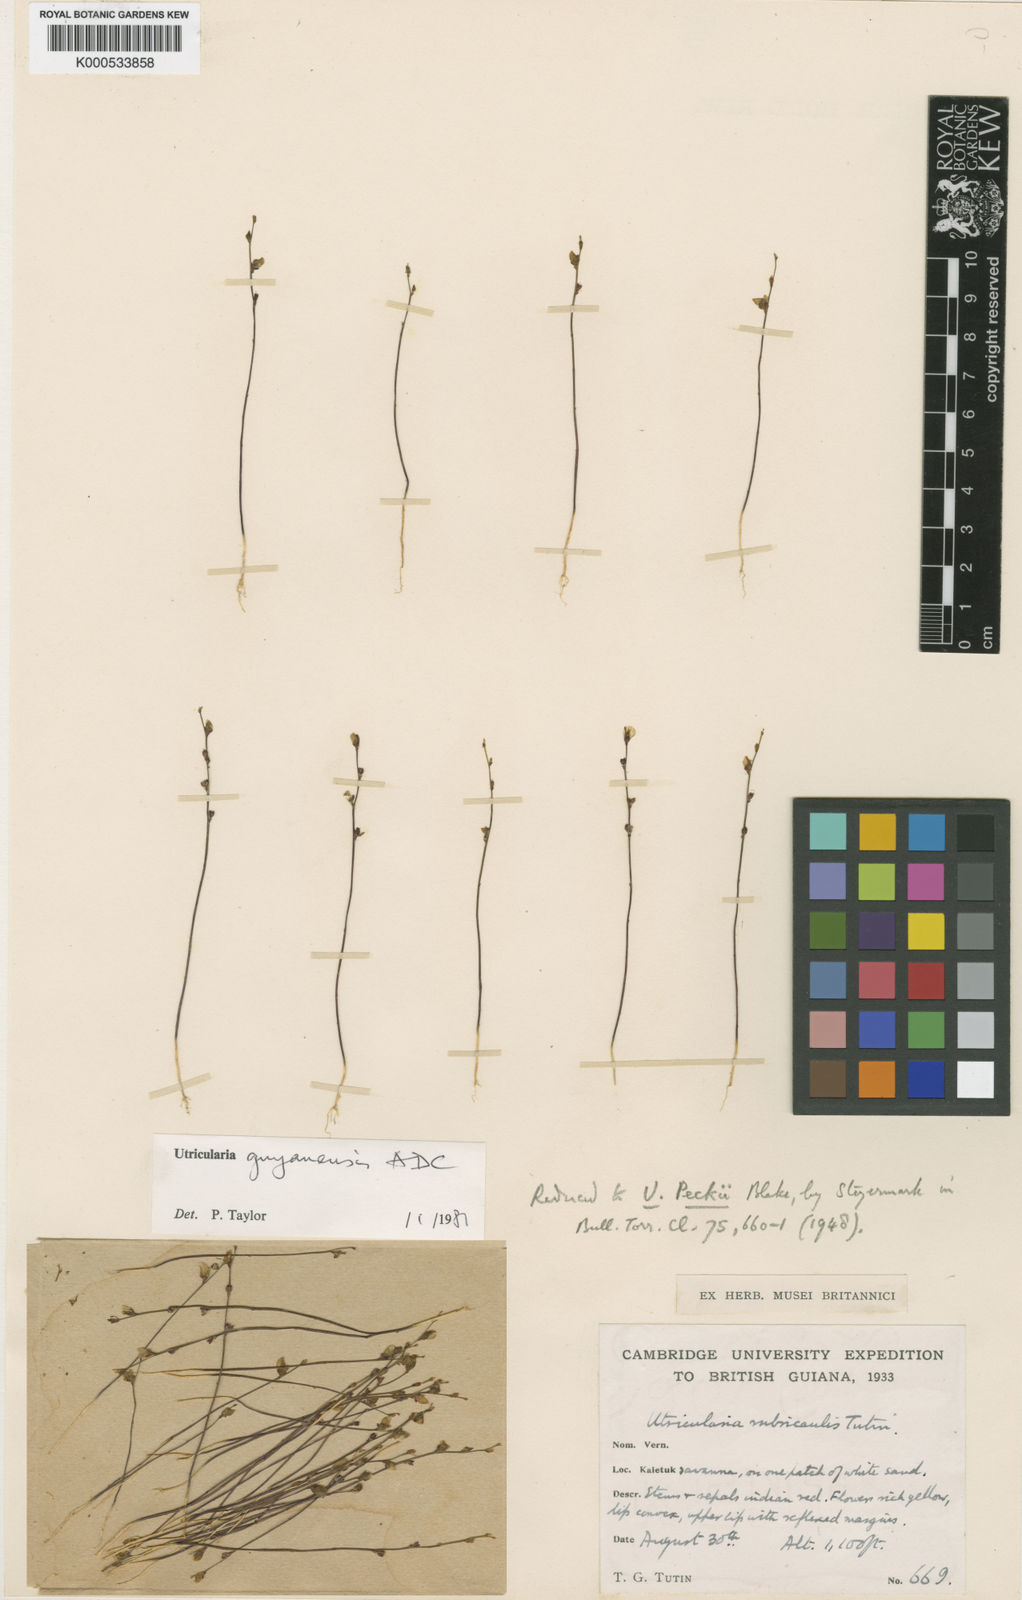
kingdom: Plantae
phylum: Tracheophyta
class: Magnoliopsida
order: Lamiales
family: Lentibulariaceae
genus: Utricularia
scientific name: Utricularia guyanensis
